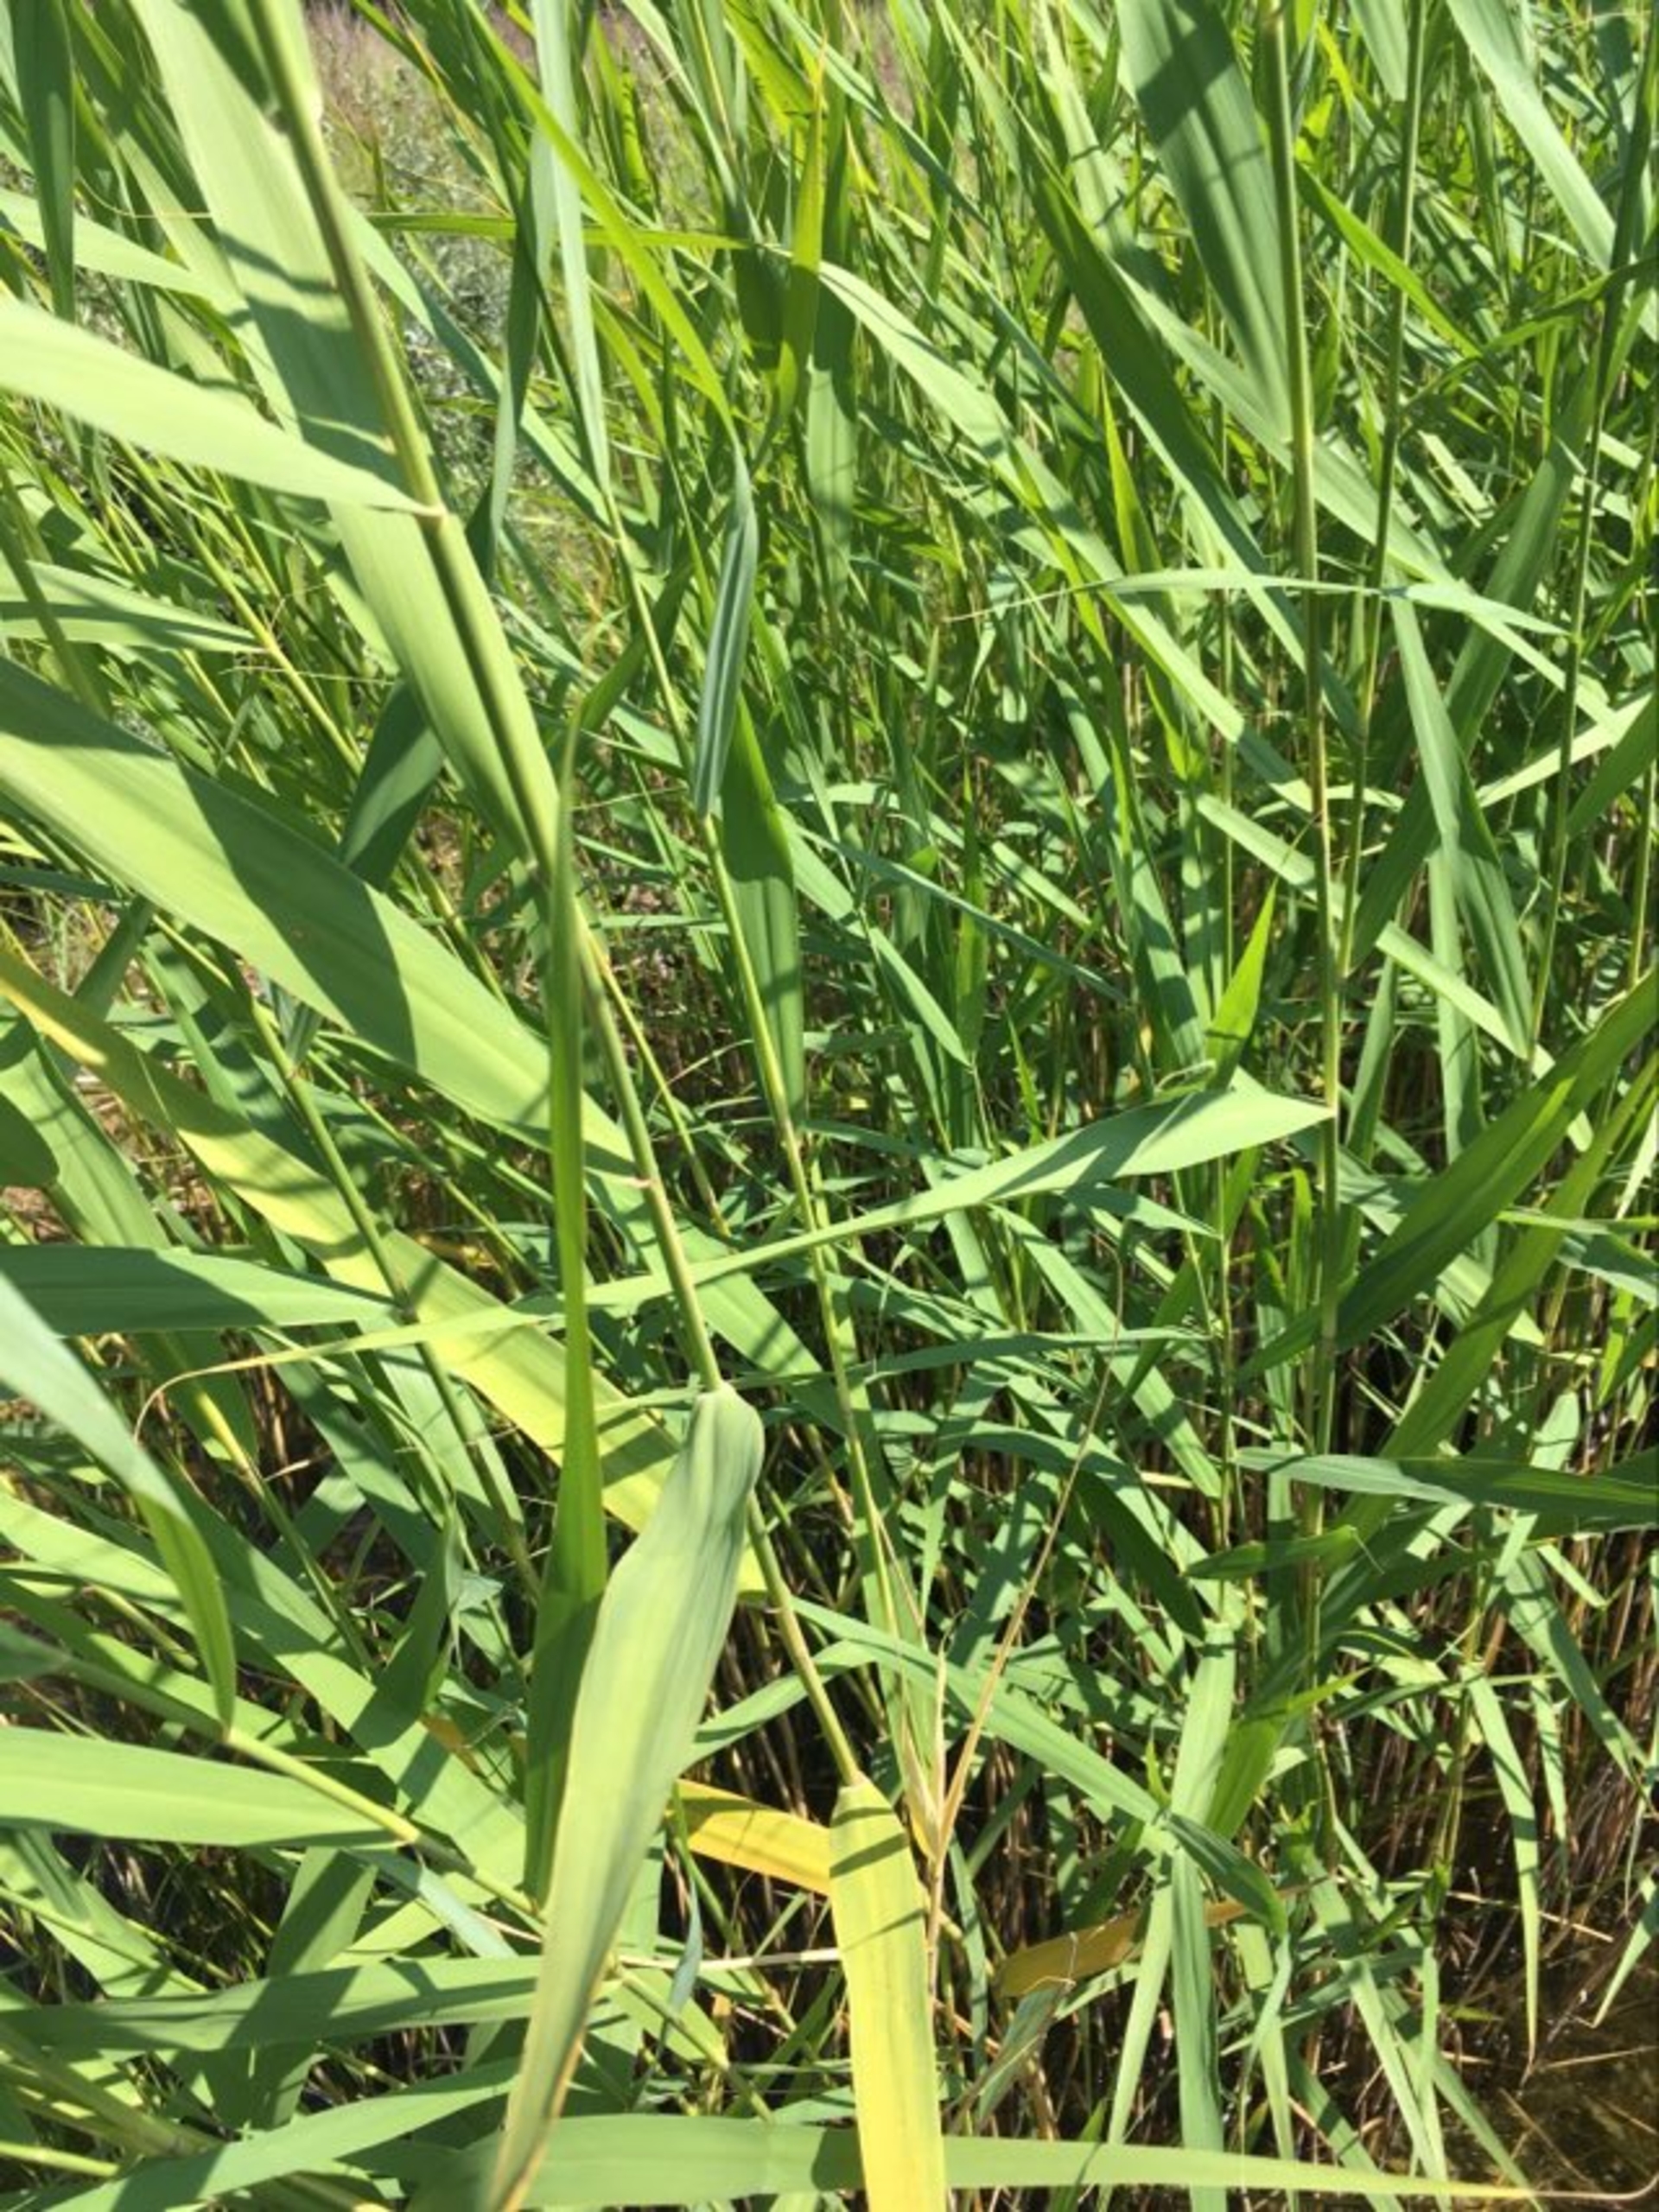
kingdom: Plantae
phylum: Tracheophyta
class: Liliopsida
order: Poales
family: Poaceae
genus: Phragmites
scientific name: Phragmites australis
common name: Tagrør
